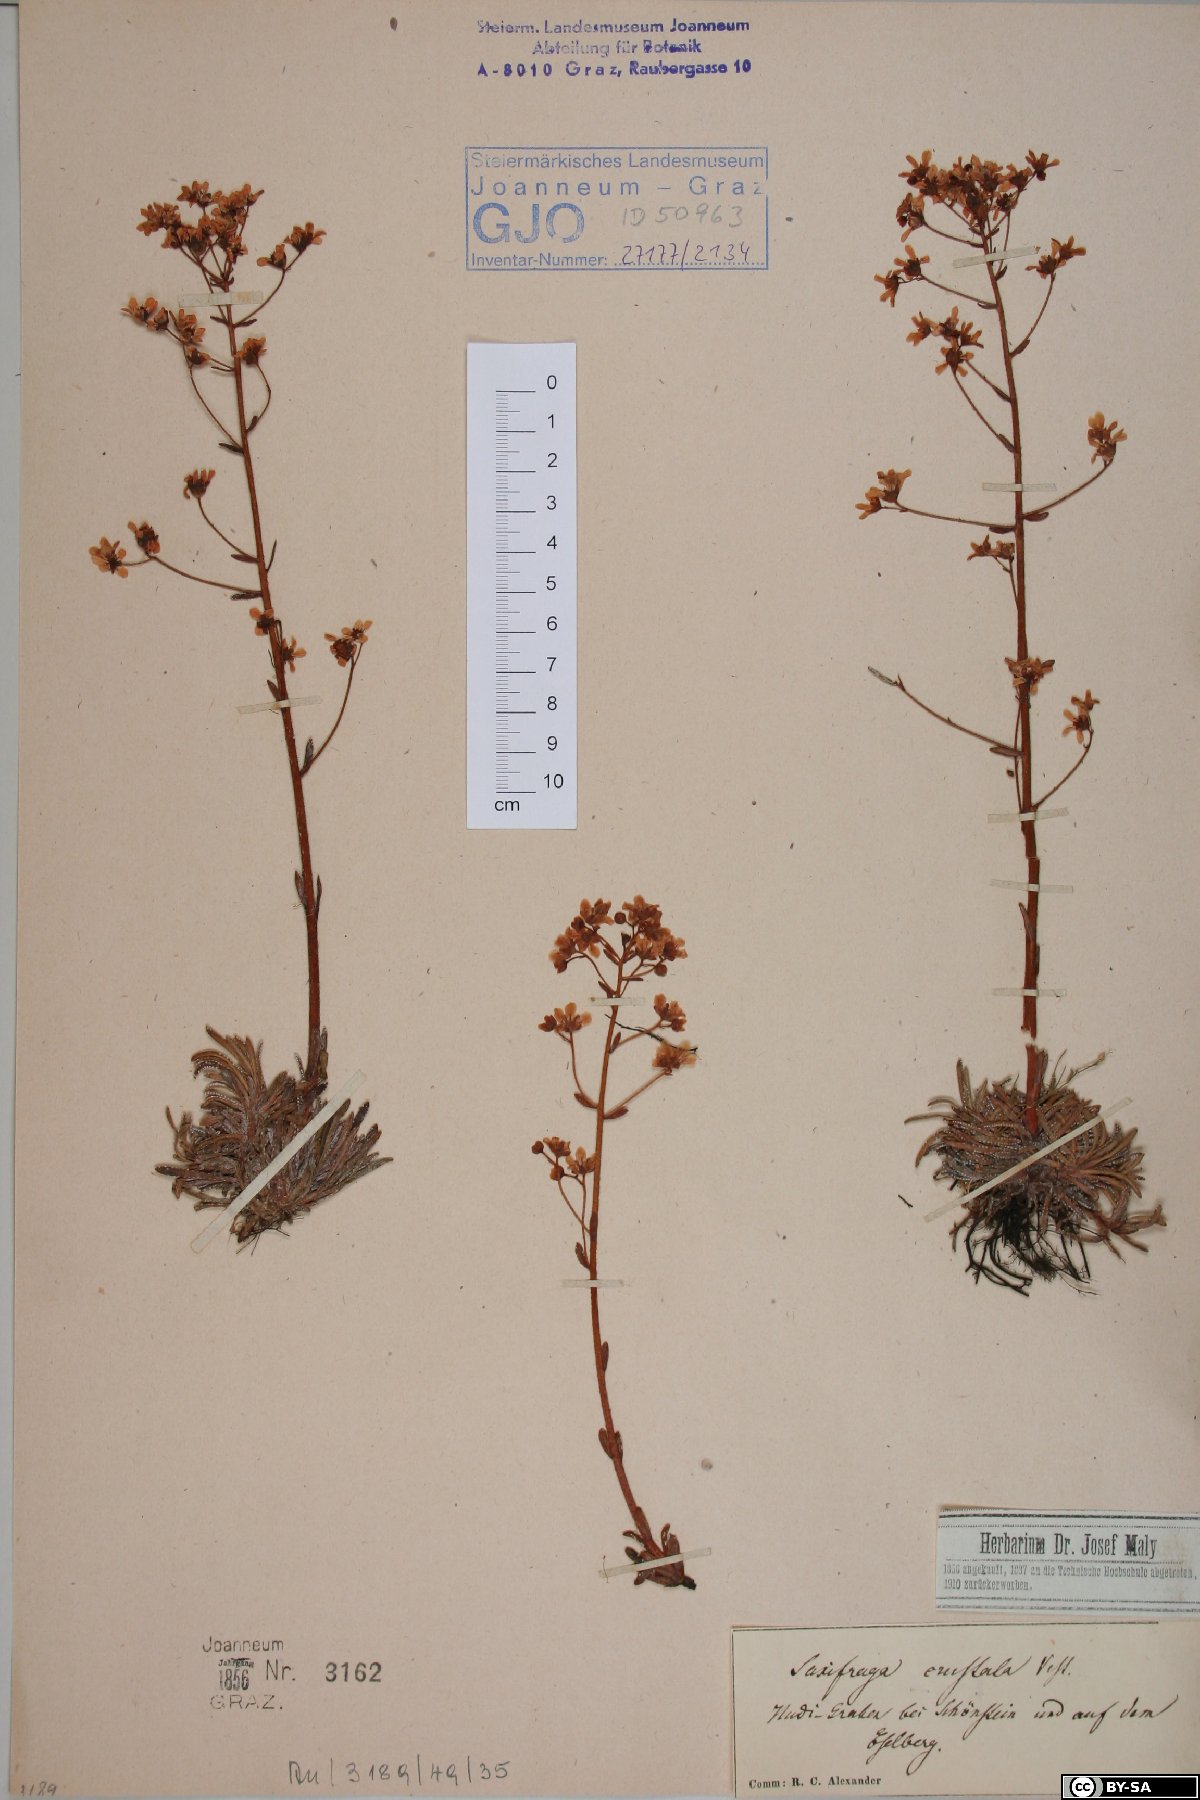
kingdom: Plantae
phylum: Tracheophyta
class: Magnoliopsida
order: Saxifragales
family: Saxifragaceae
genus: Saxifraga
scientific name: Saxifraga crustata
